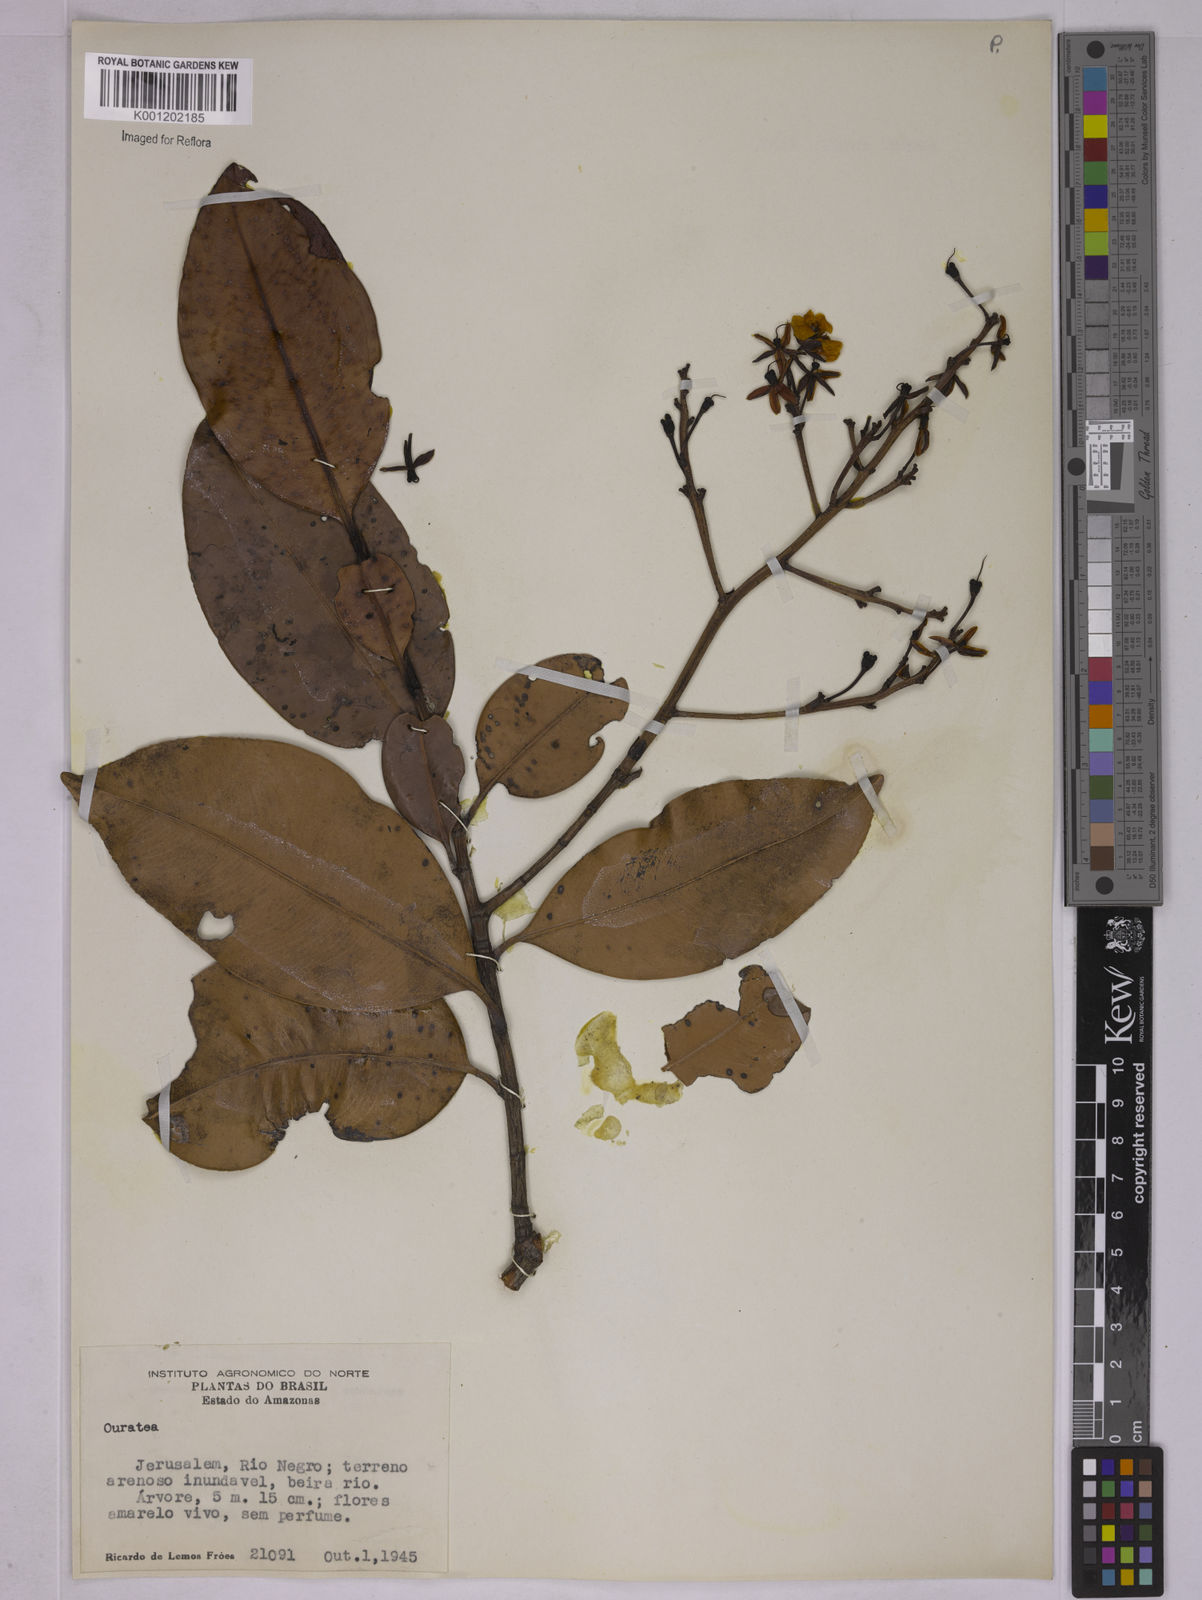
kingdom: Plantae
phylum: Tracheophyta
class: Magnoliopsida
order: Malpighiales
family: Ochnaceae
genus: Ouratea
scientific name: Ouratea
